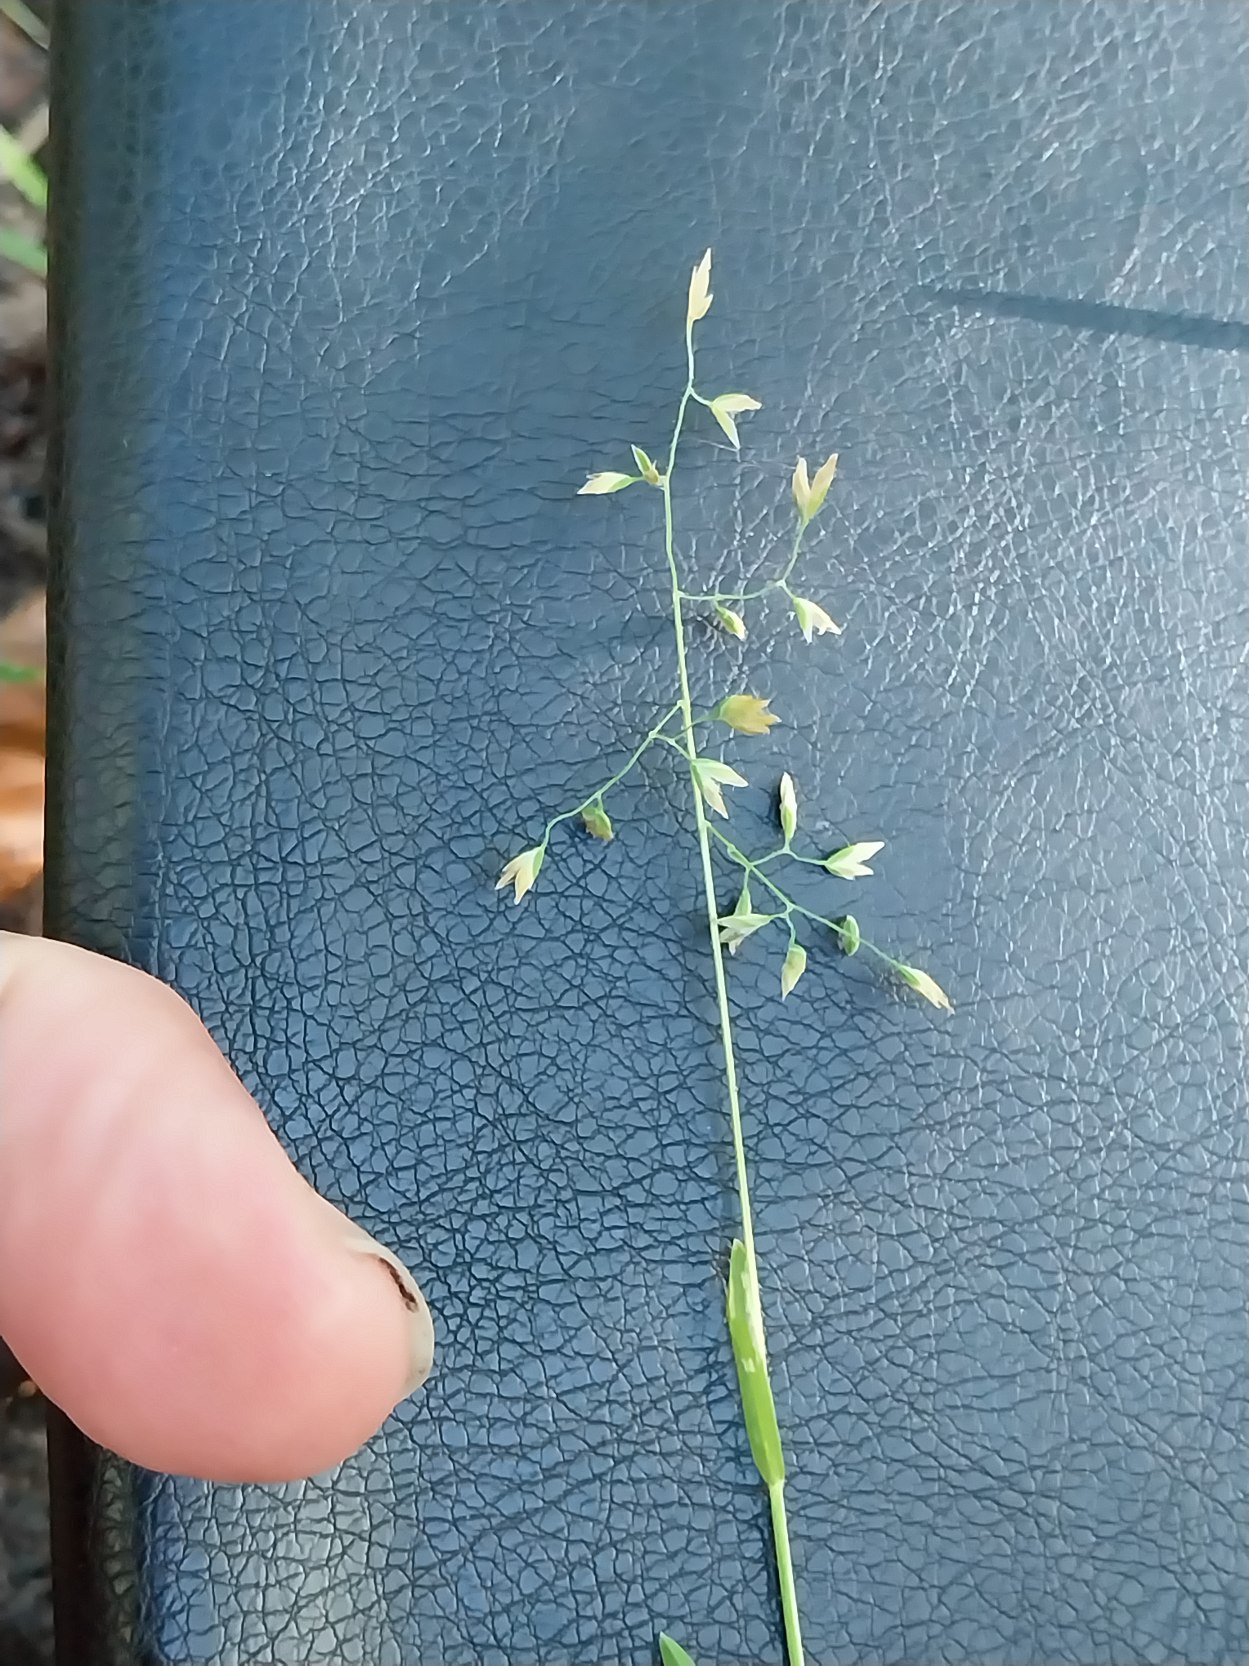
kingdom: Plantae
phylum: Tracheophyta
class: Liliopsida
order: Poales
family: Poaceae
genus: Poa
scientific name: Poa annua
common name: Enårig rapgræs
